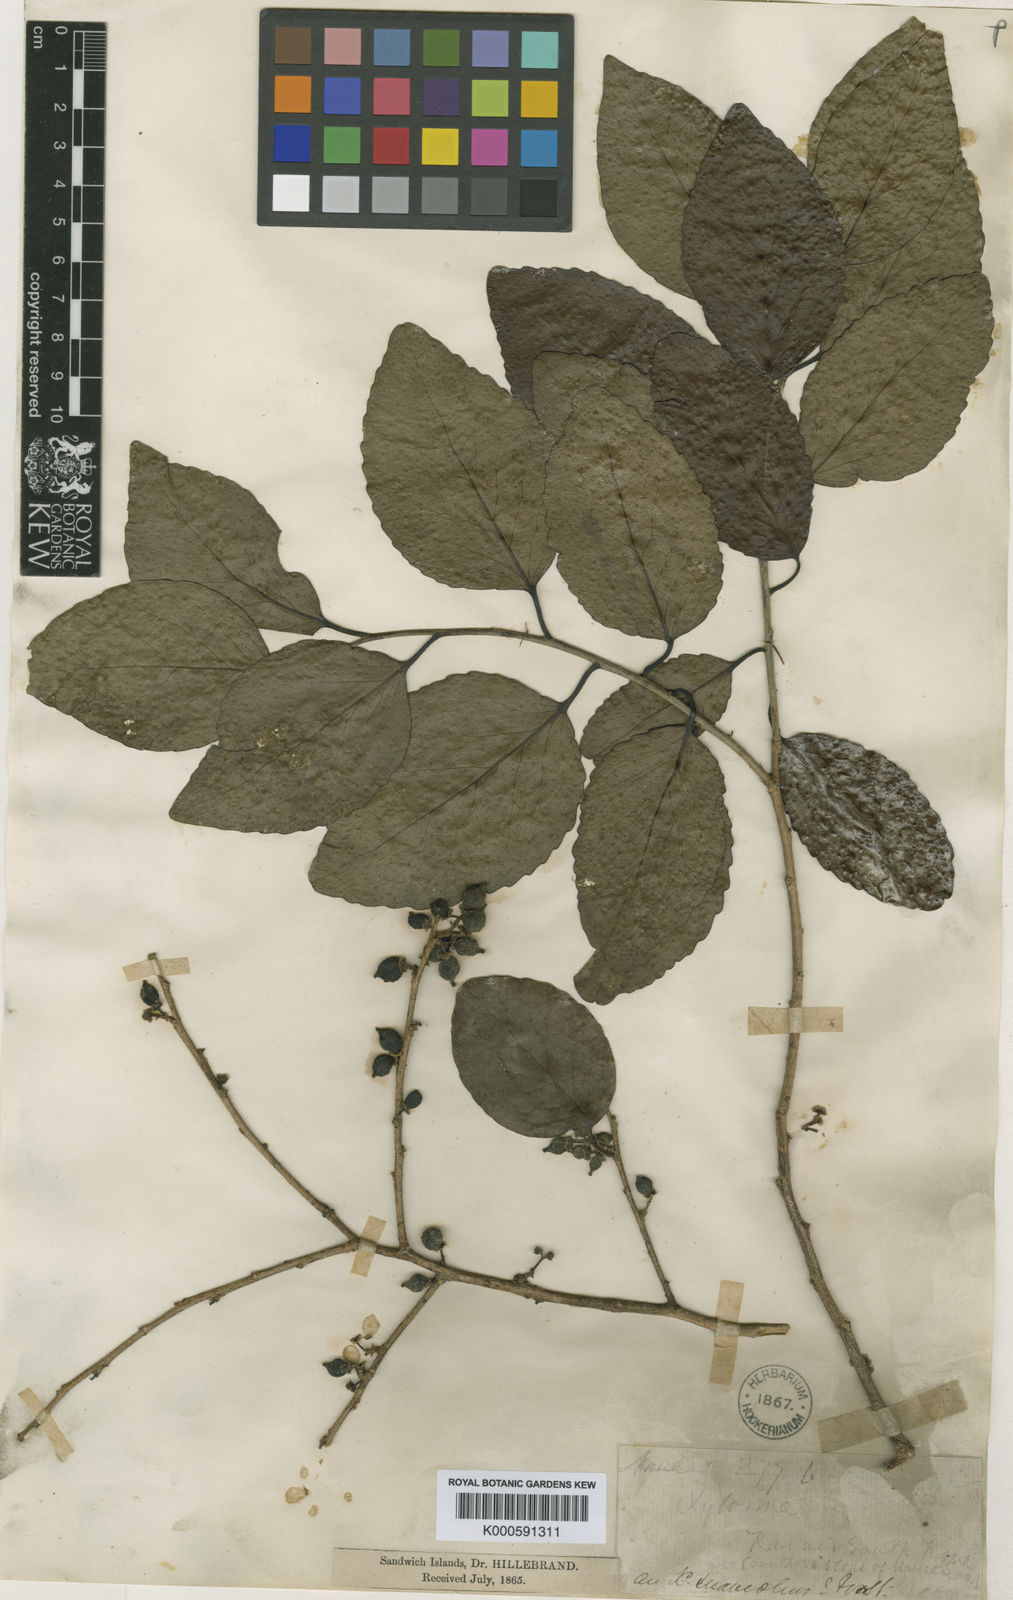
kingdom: Plantae
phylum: Tracheophyta
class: Magnoliopsida
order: Malpighiales
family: Salicaceae
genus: Xylosma
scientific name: Xylosma hawaiense
